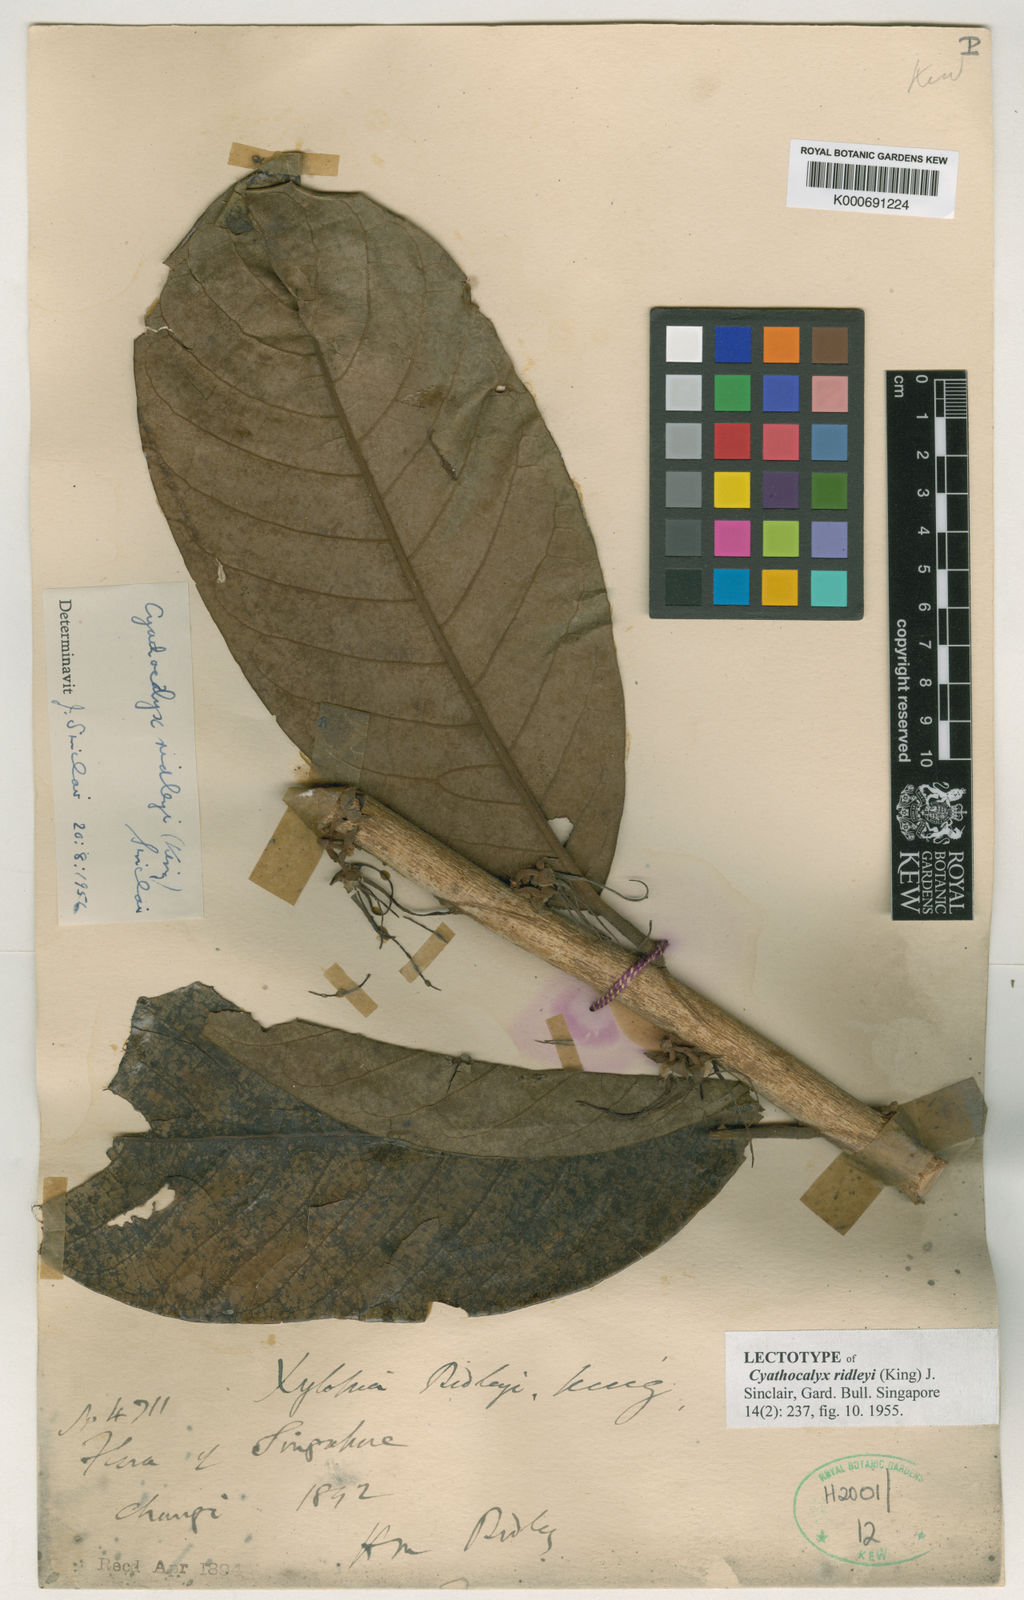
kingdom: Plantae
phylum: Tracheophyta
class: Magnoliopsida
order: Magnoliales
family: Annonaceae
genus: Drepananthus
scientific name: Drepananthus ridleyi
